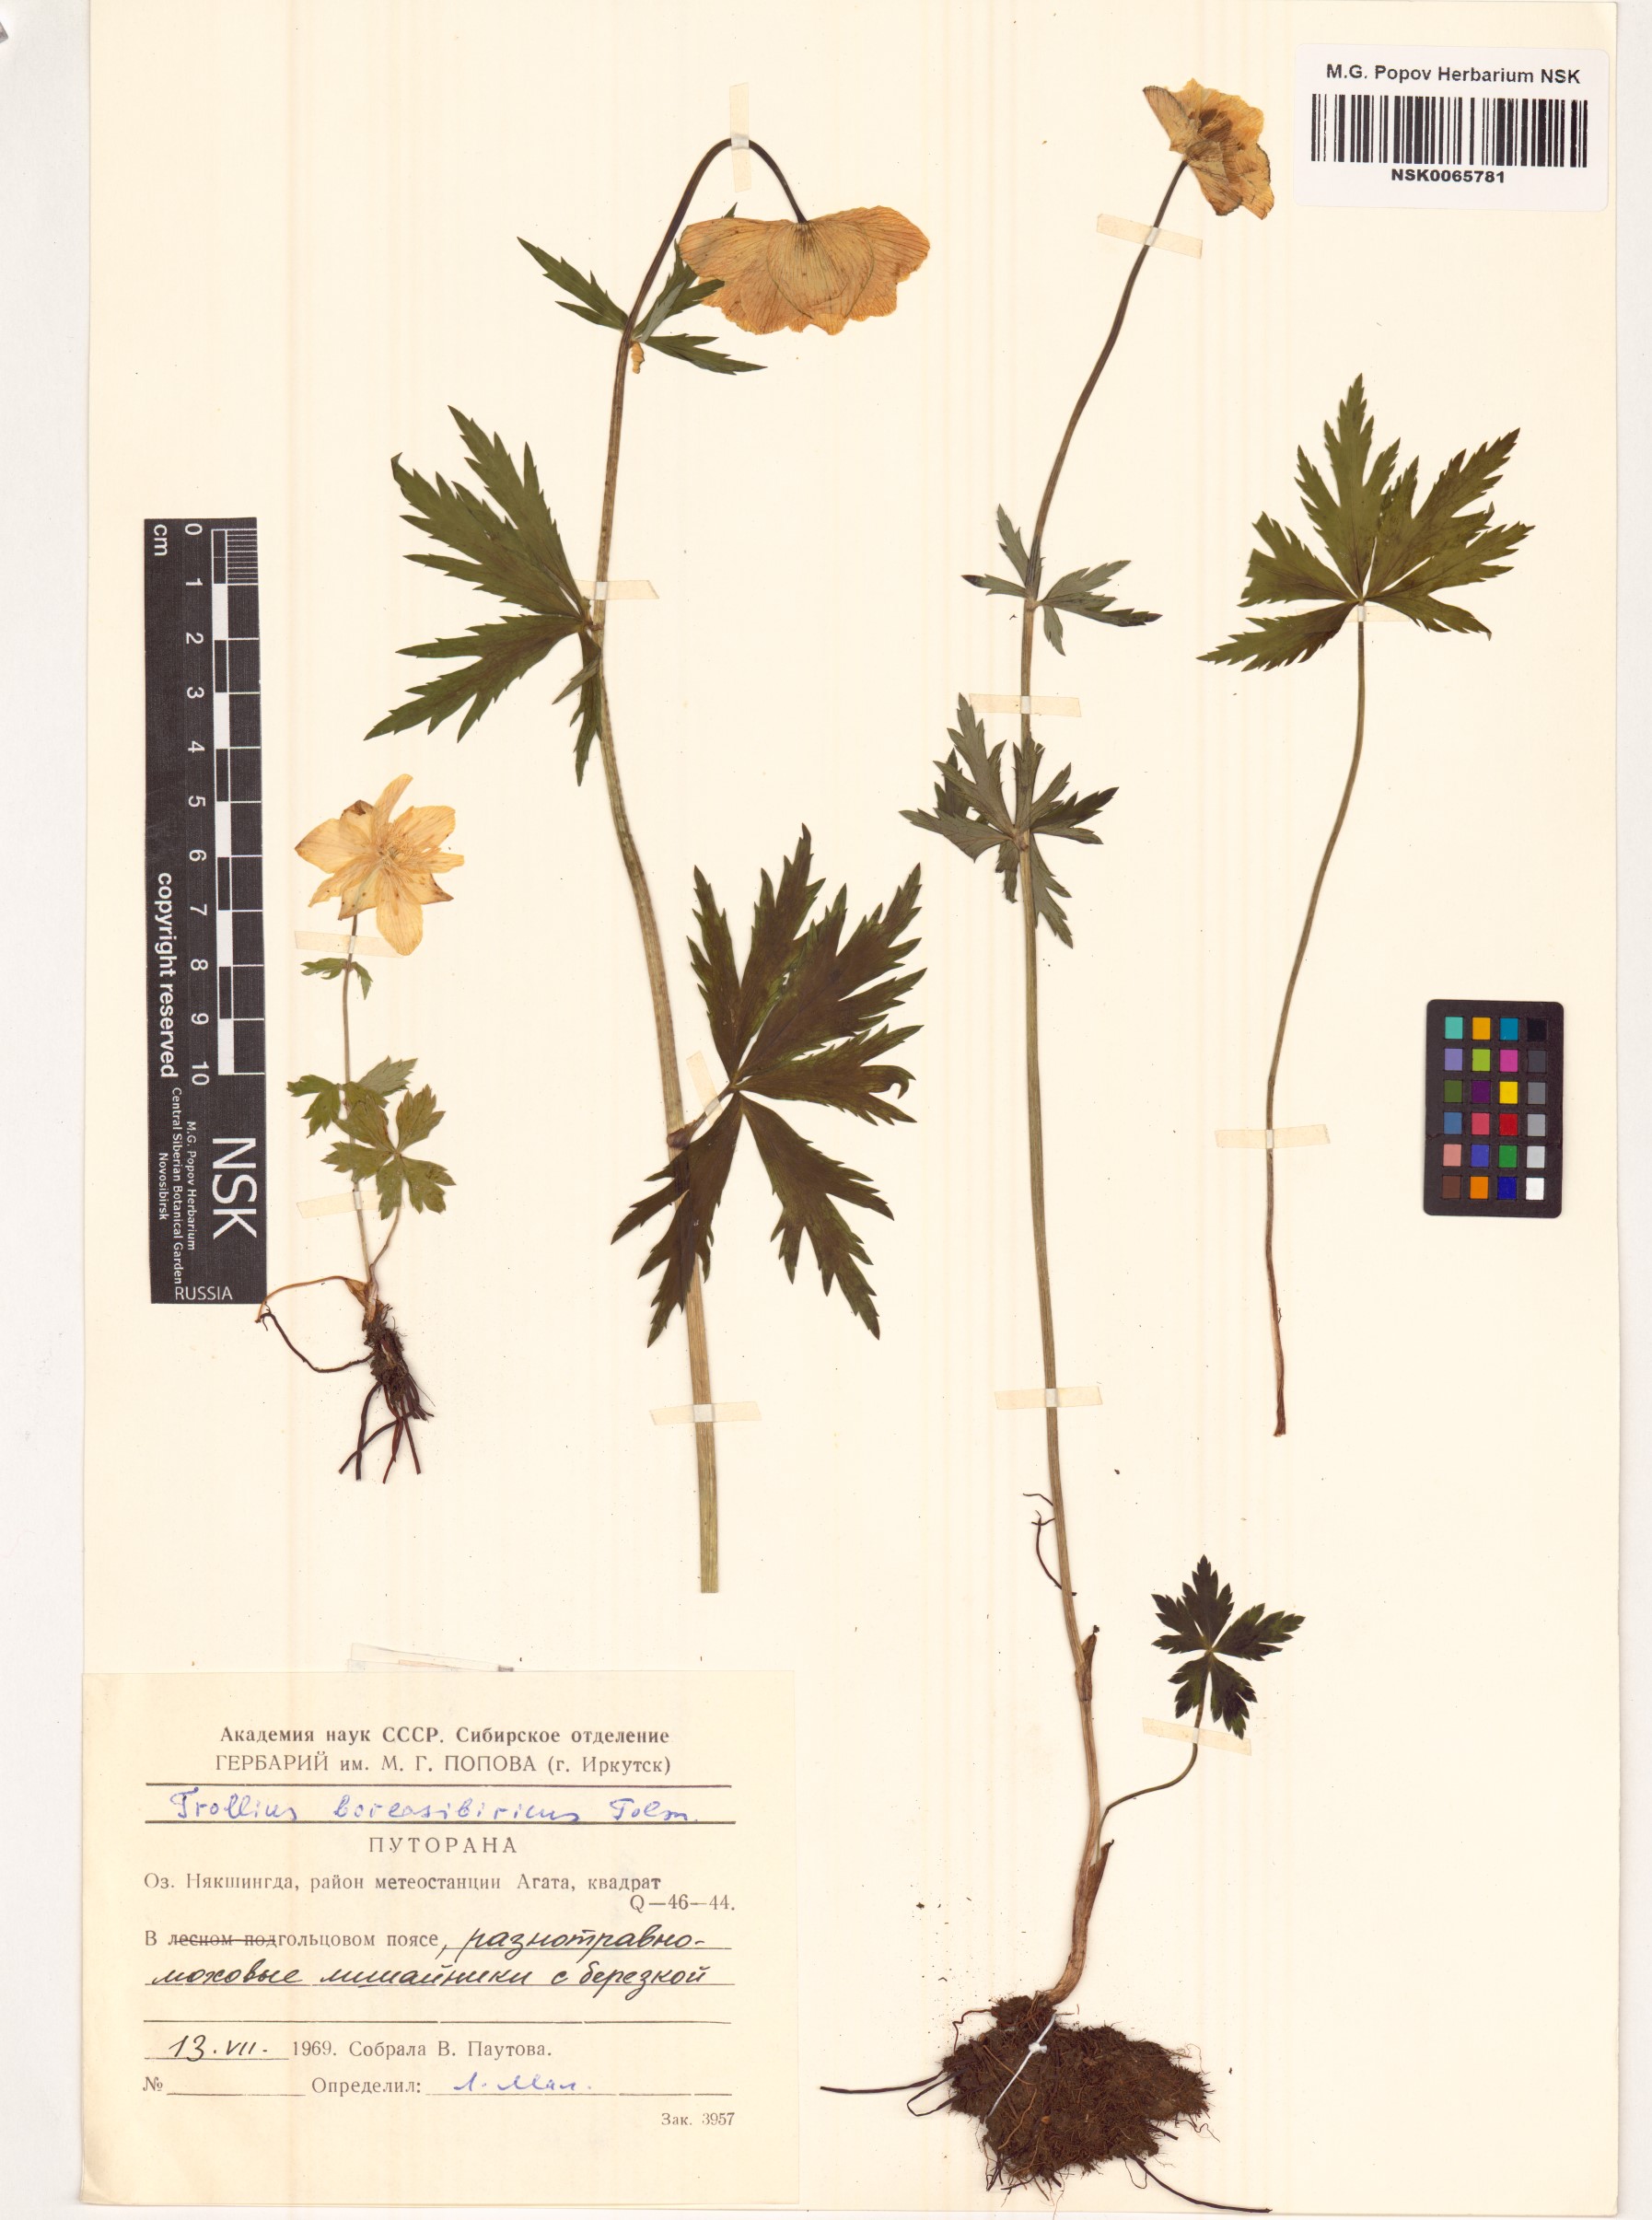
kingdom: Plantae
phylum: Tracheophyta
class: Magnoliopsida
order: Ranunculales
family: Ranunculaceae
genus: Trollius
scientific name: Trollius sibiricus
